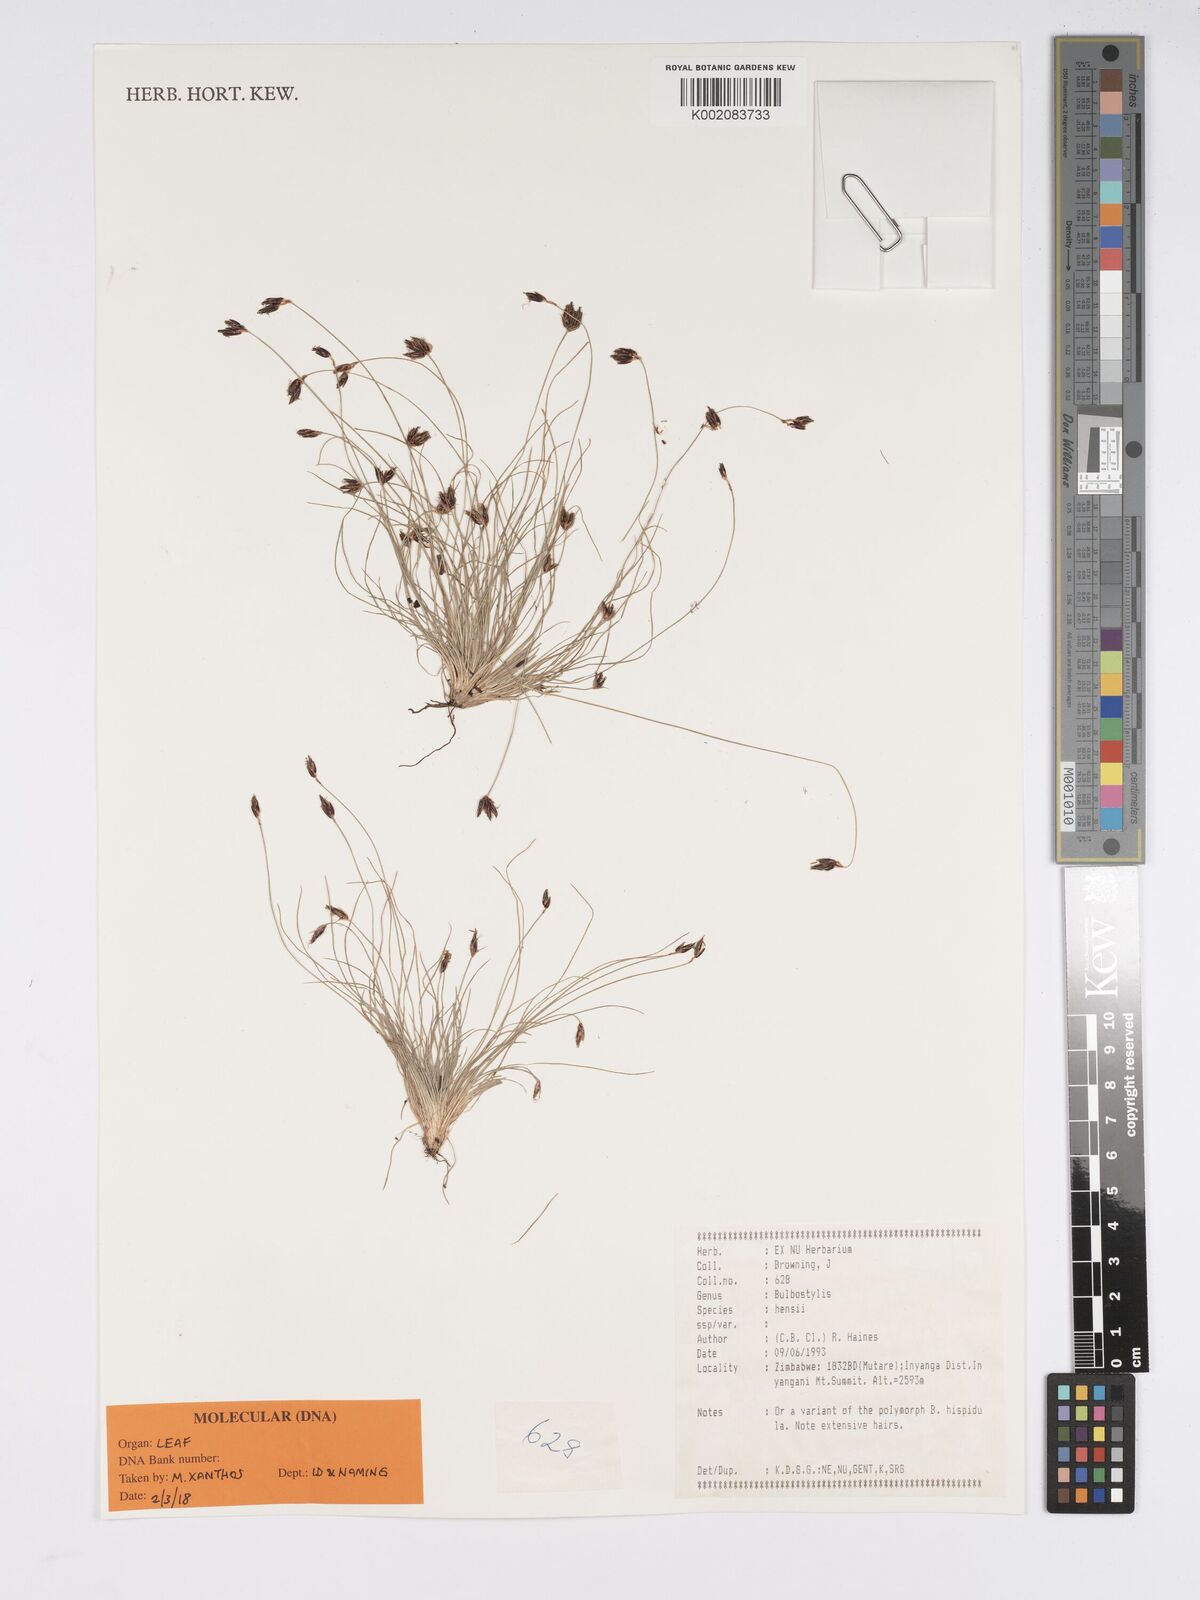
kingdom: Plantae
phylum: Tracheophyta
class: Liliopsida
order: Poales
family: Cyperaceae
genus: Bulbostylis
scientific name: Bulbostylis hensii
